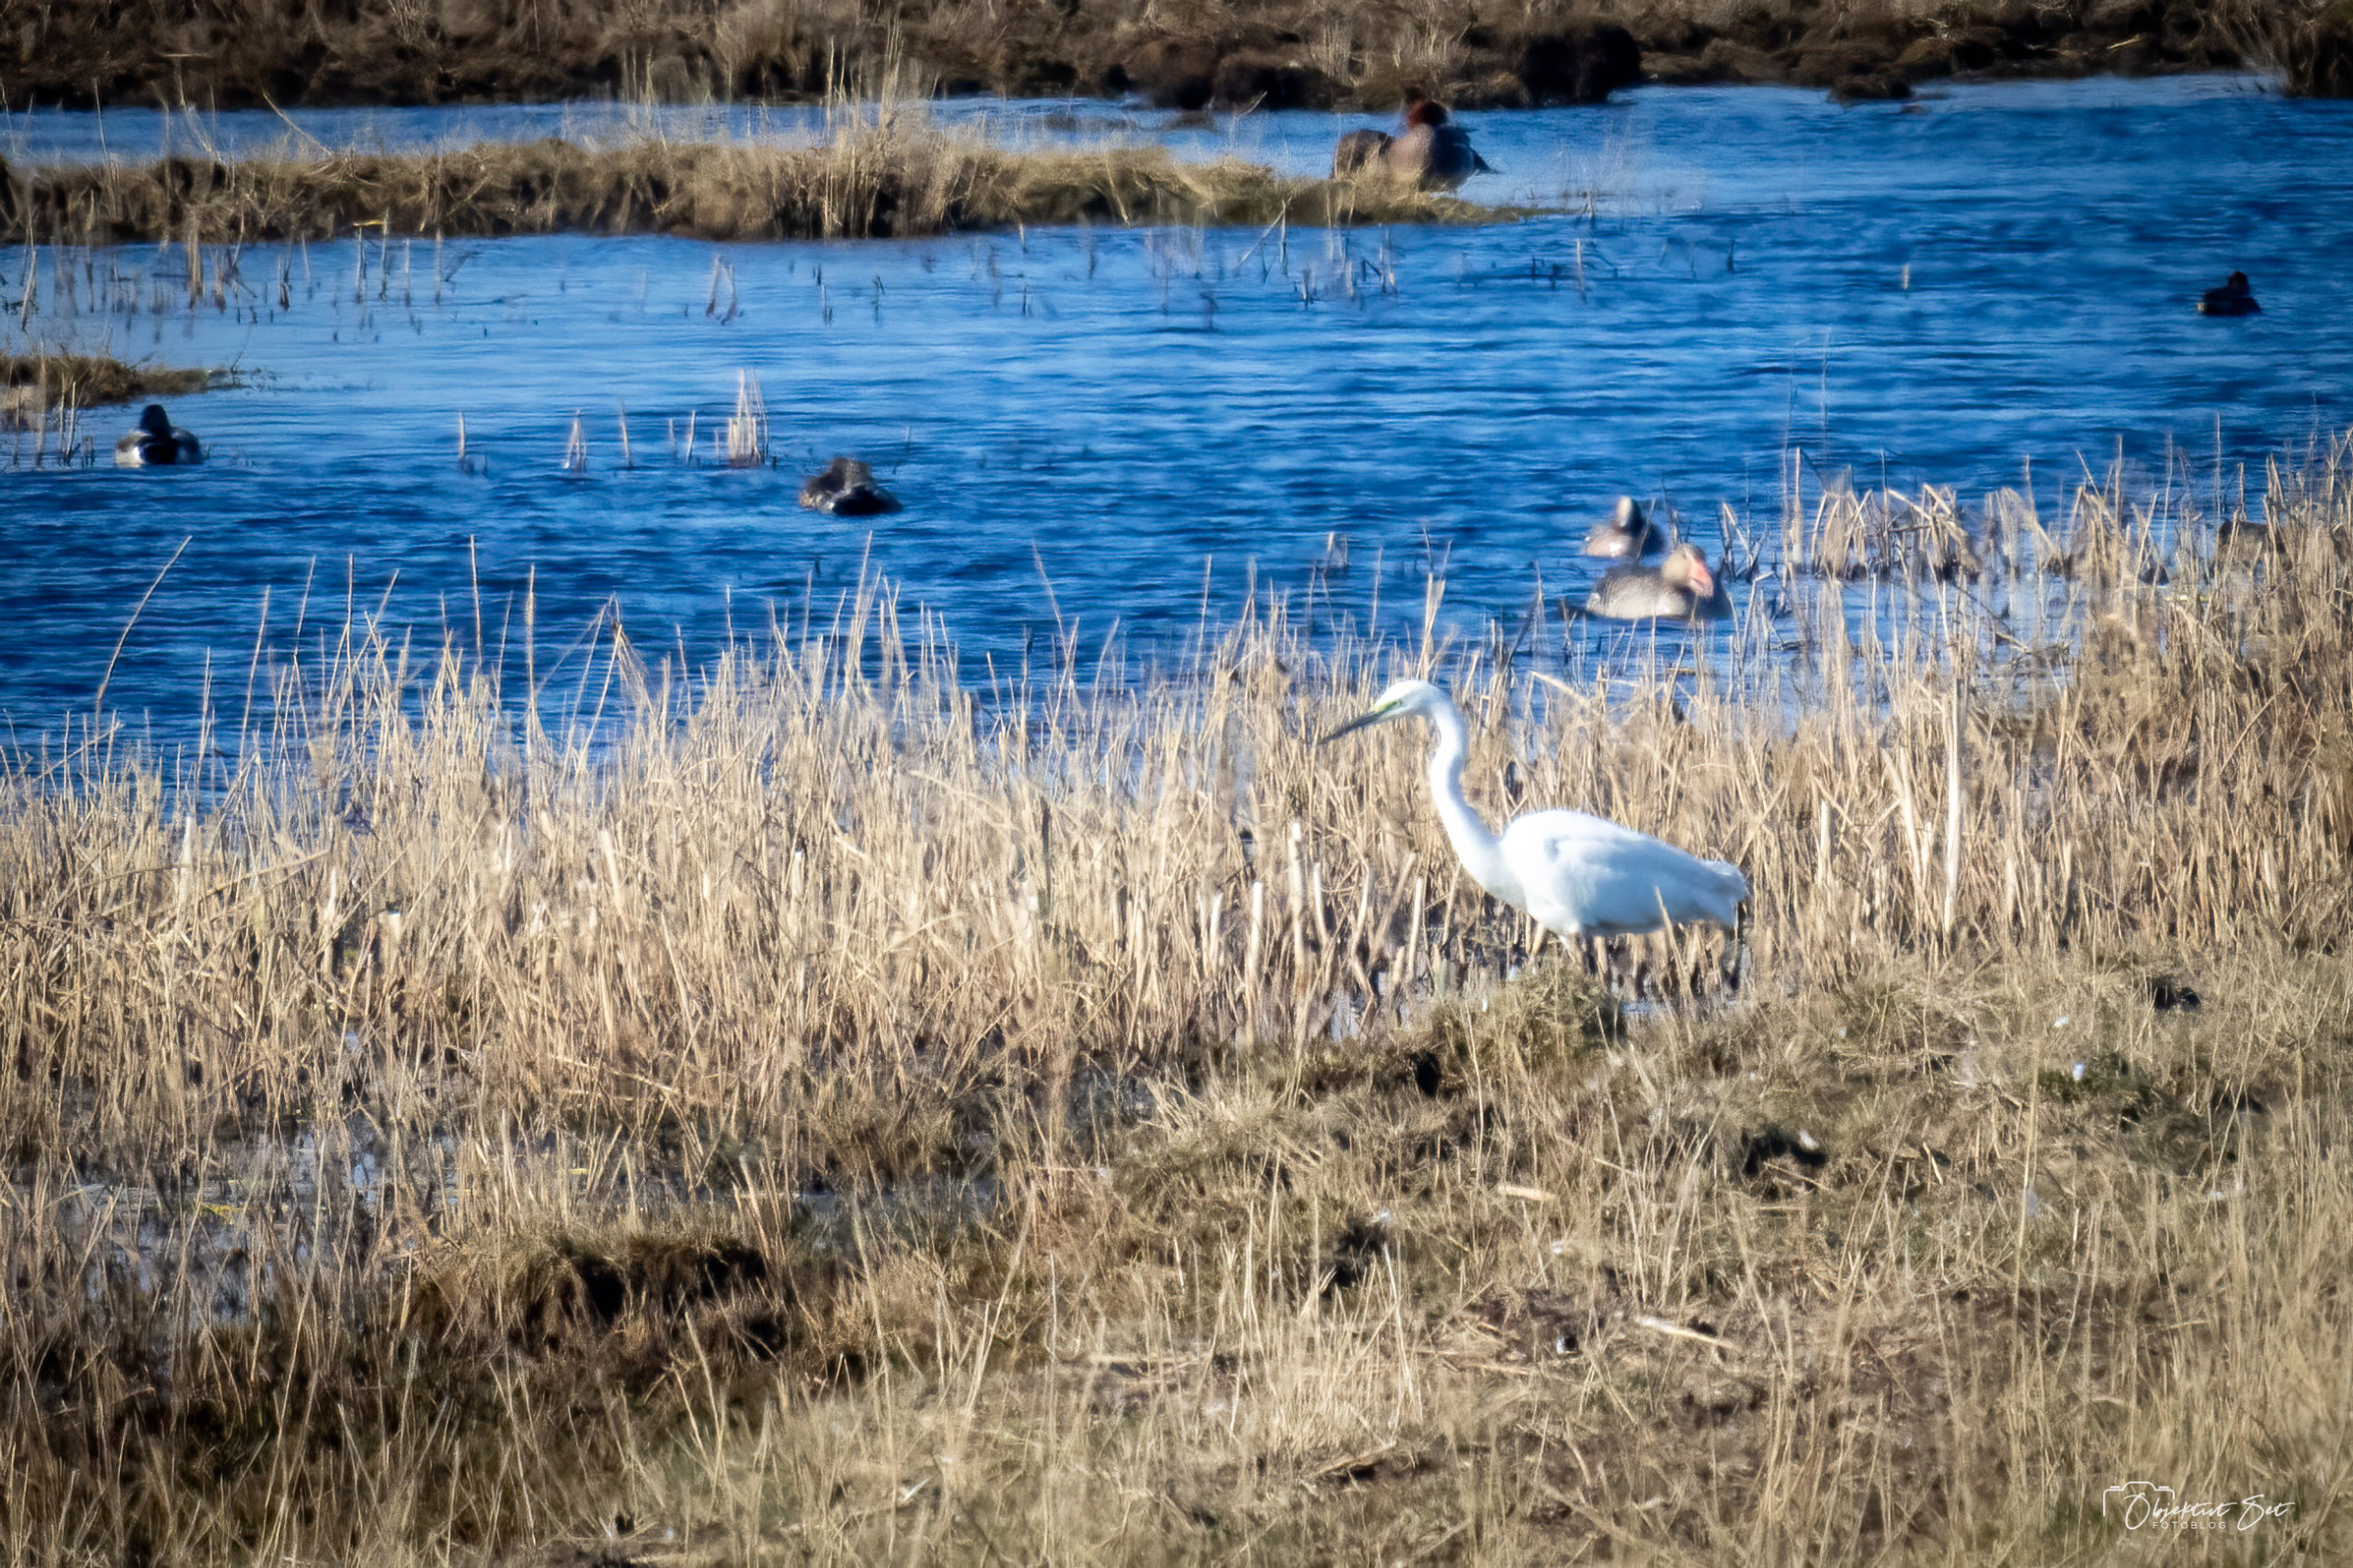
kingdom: Animalia
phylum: Chordata
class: Aves
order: Pelecaniformes
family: Ardeidae
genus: Ardea
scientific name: Ardea alba
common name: Sølvhejre
